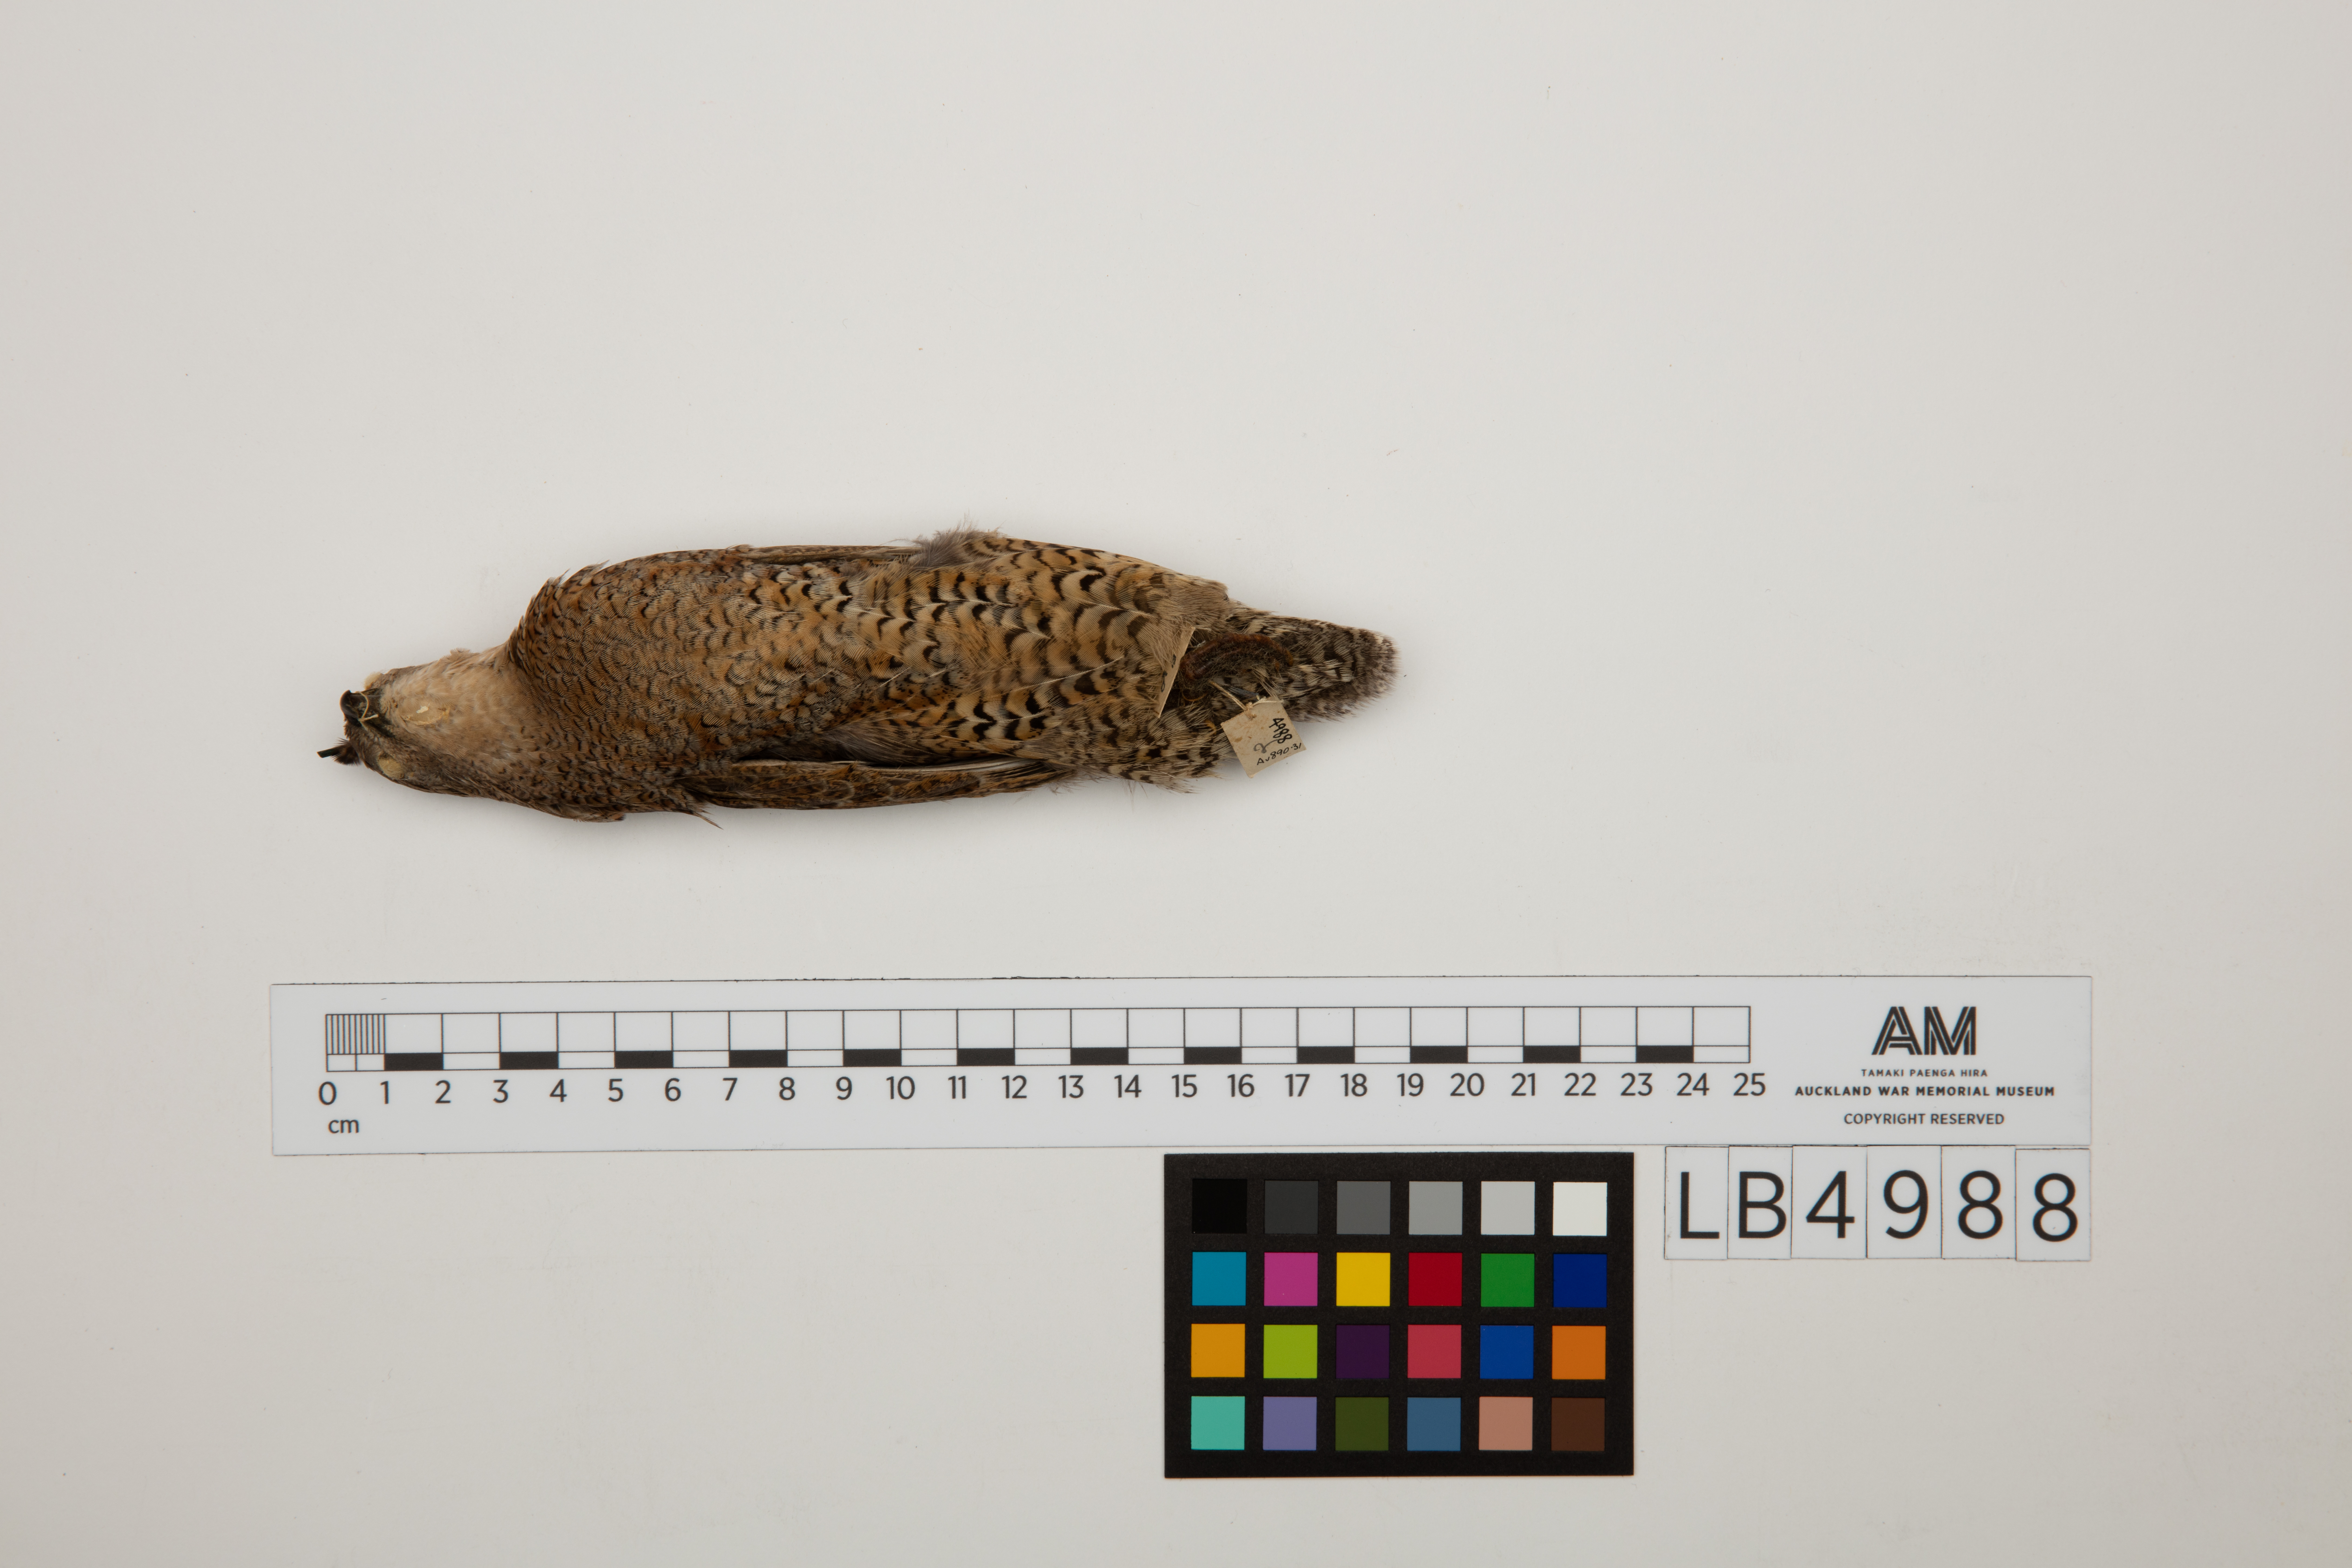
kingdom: Animalia
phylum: Chordata
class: Aves
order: Galliformes
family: Phasianidae
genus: Synoicus
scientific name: Synoicus ypsilophorus
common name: Brown quail
